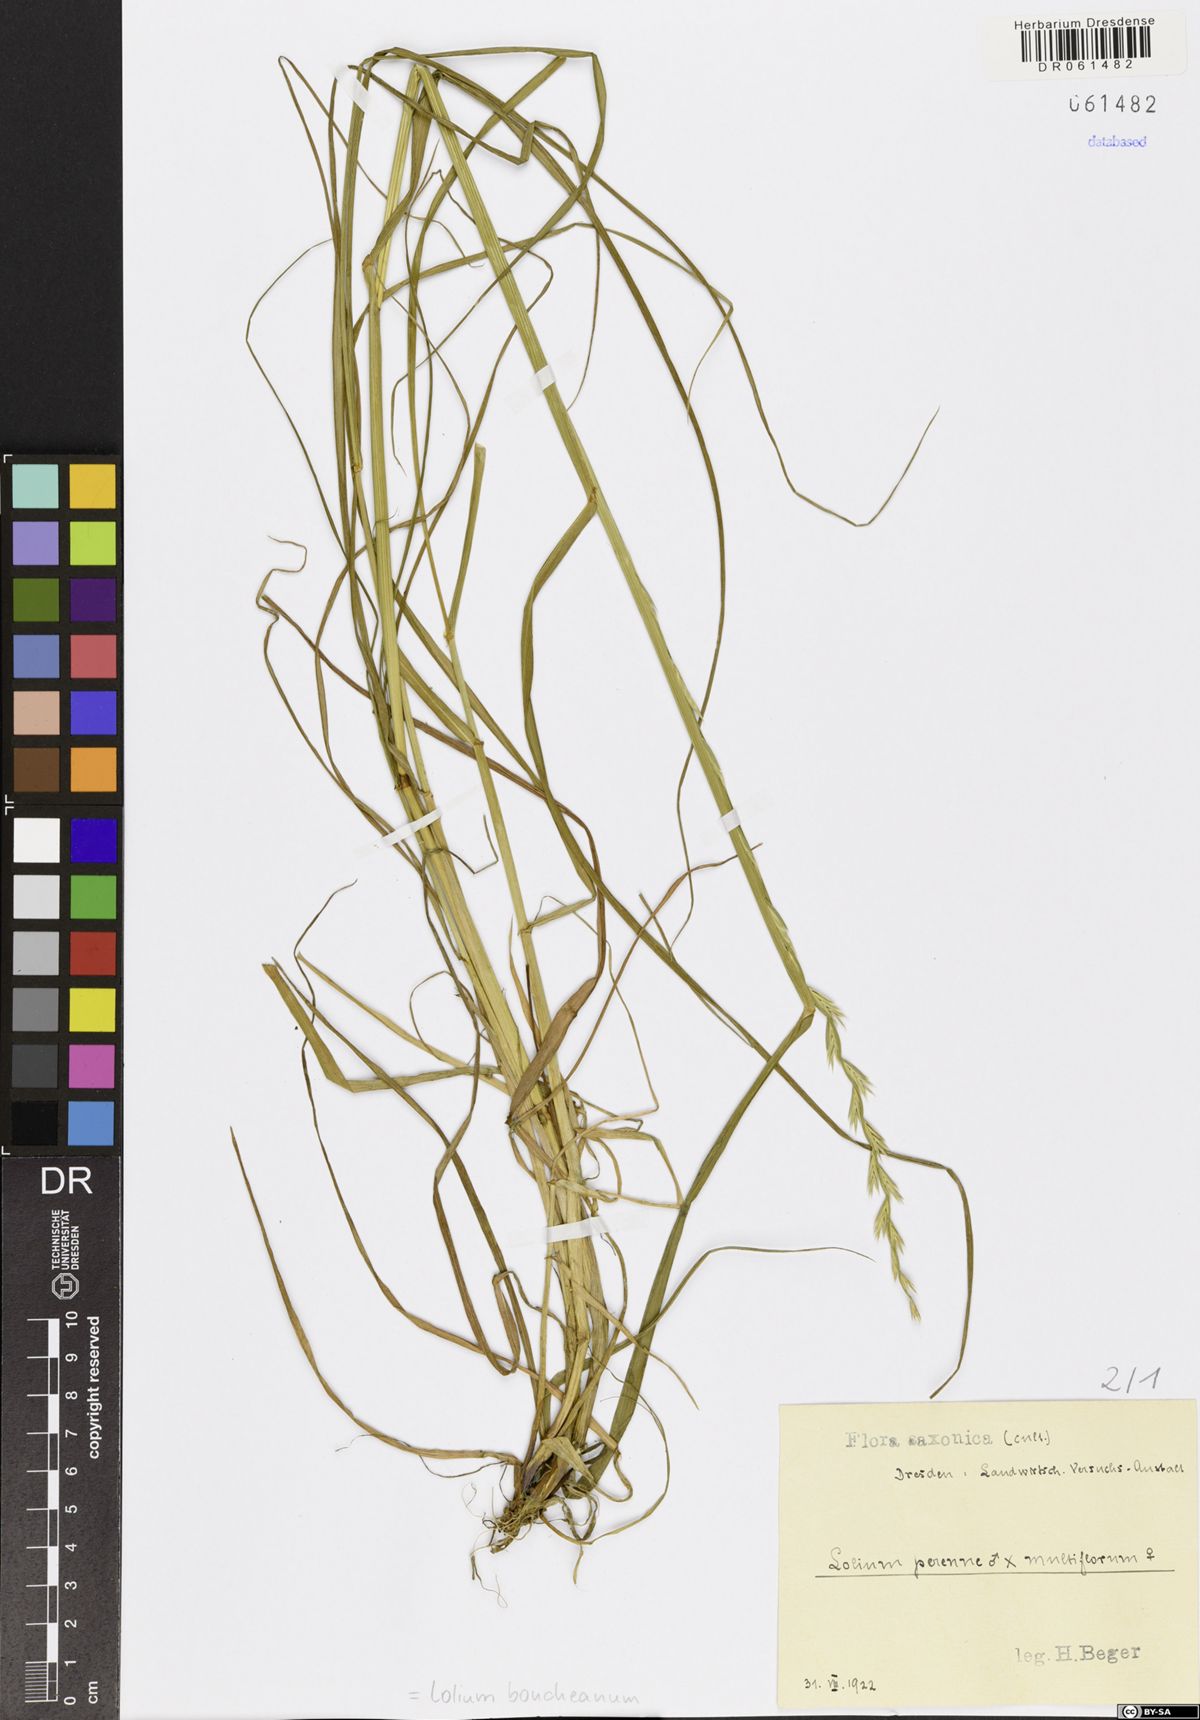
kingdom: Plantae
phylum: Tracheophyta
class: Liliopsida
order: Poales
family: Poaceae
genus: Lolium
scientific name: Lolium boucheanum
